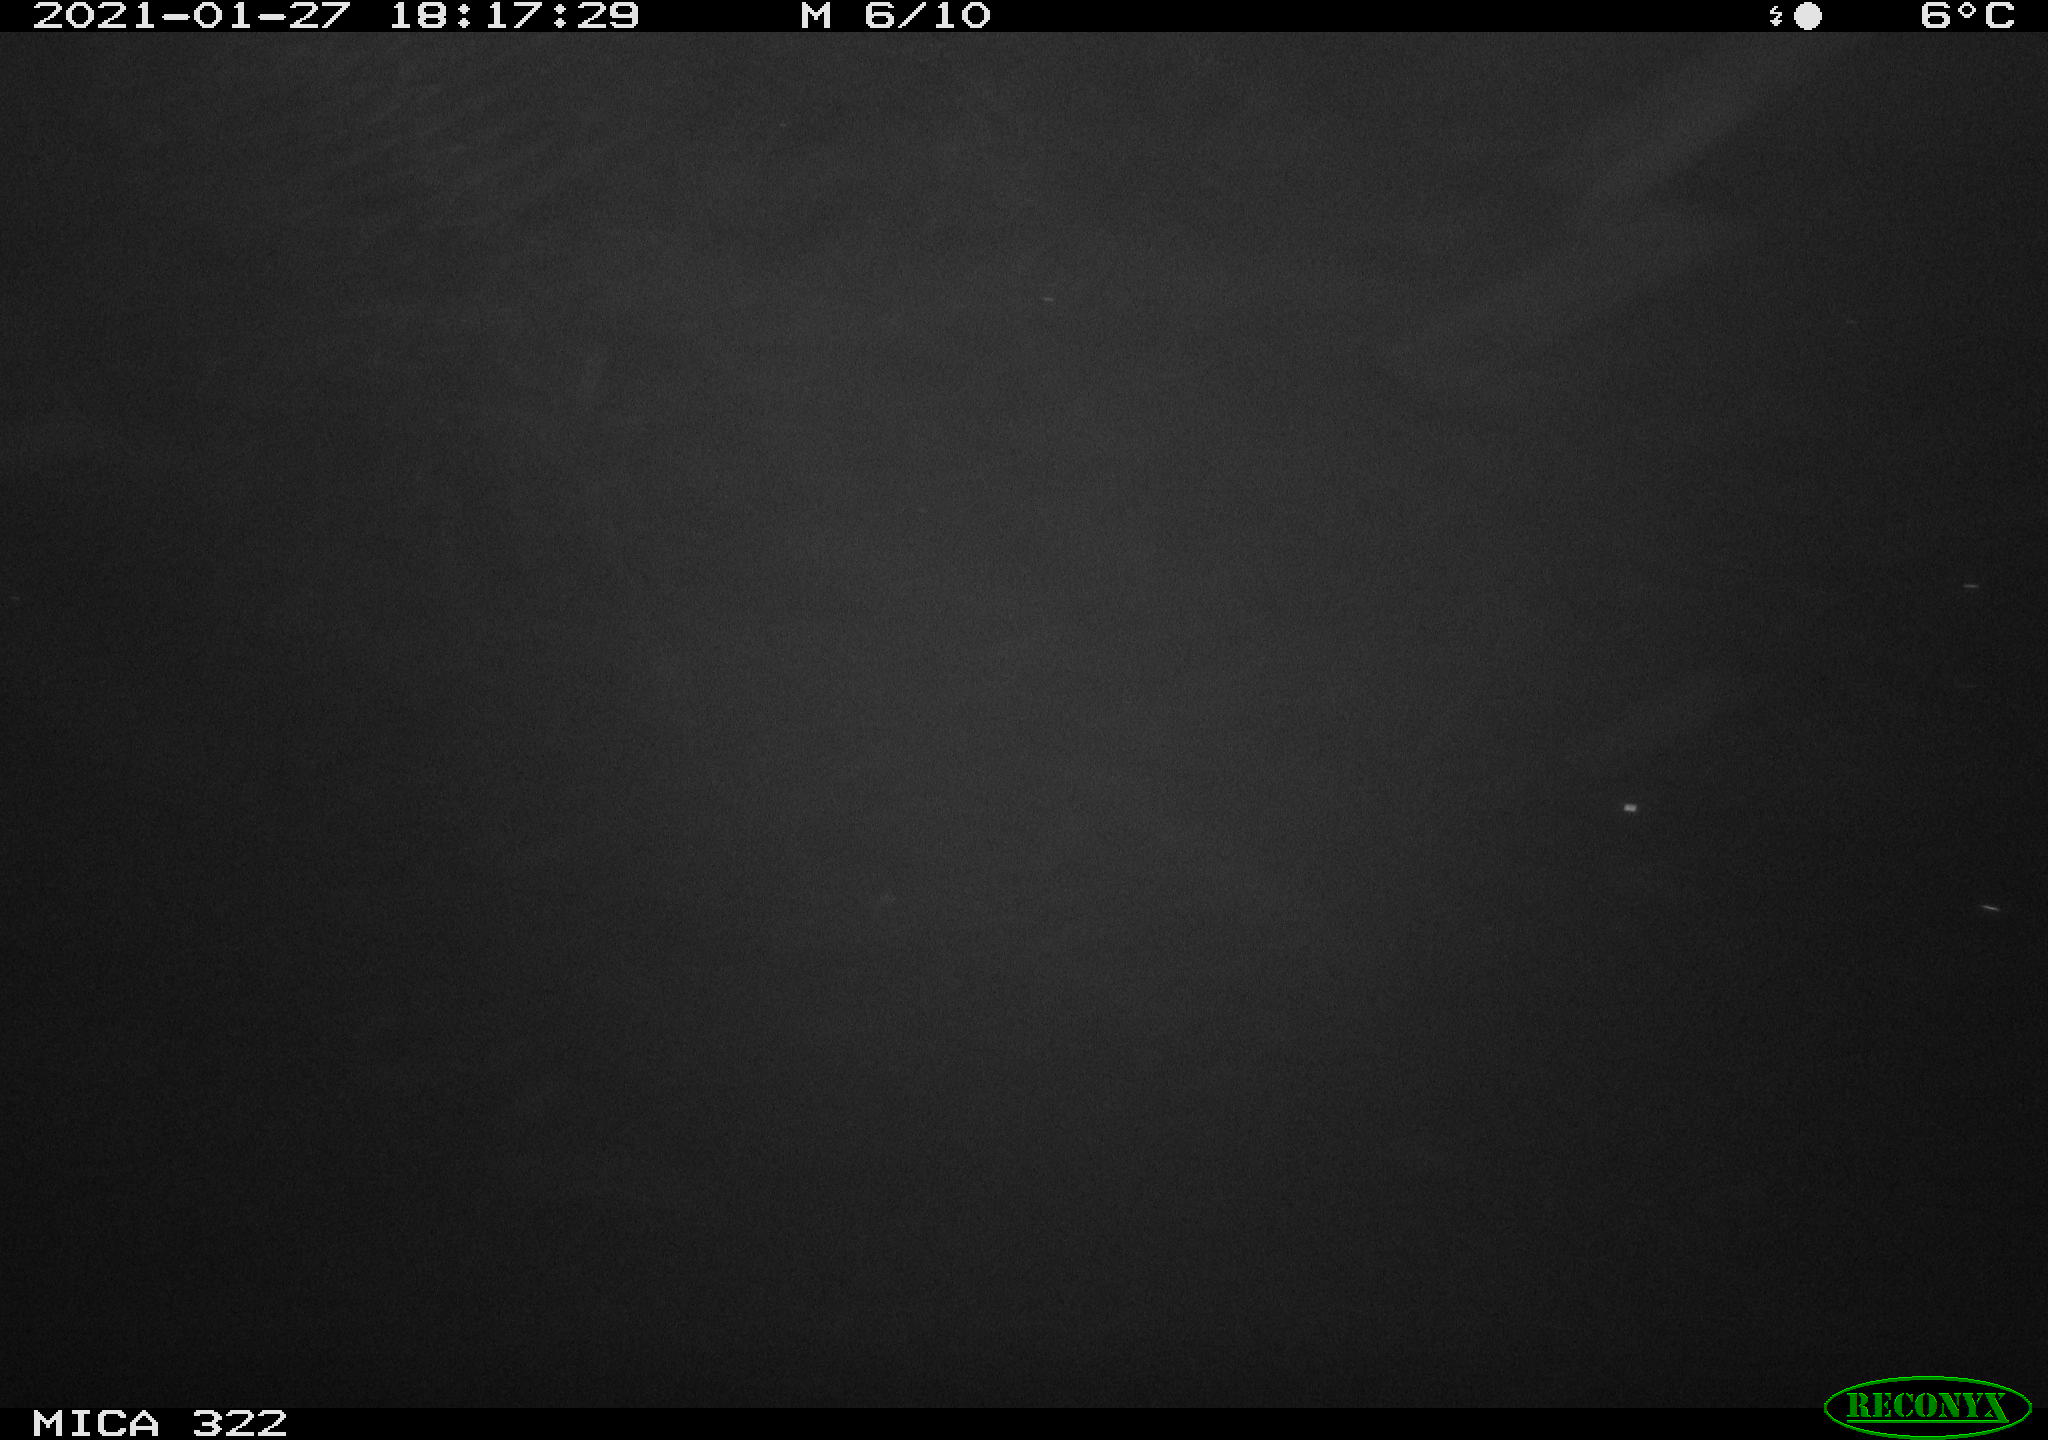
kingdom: Animalia
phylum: Chordata
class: Mammalia
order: Rodentia
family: Muridae
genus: Rattus
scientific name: Rattus norvegicus
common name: Brown rat
